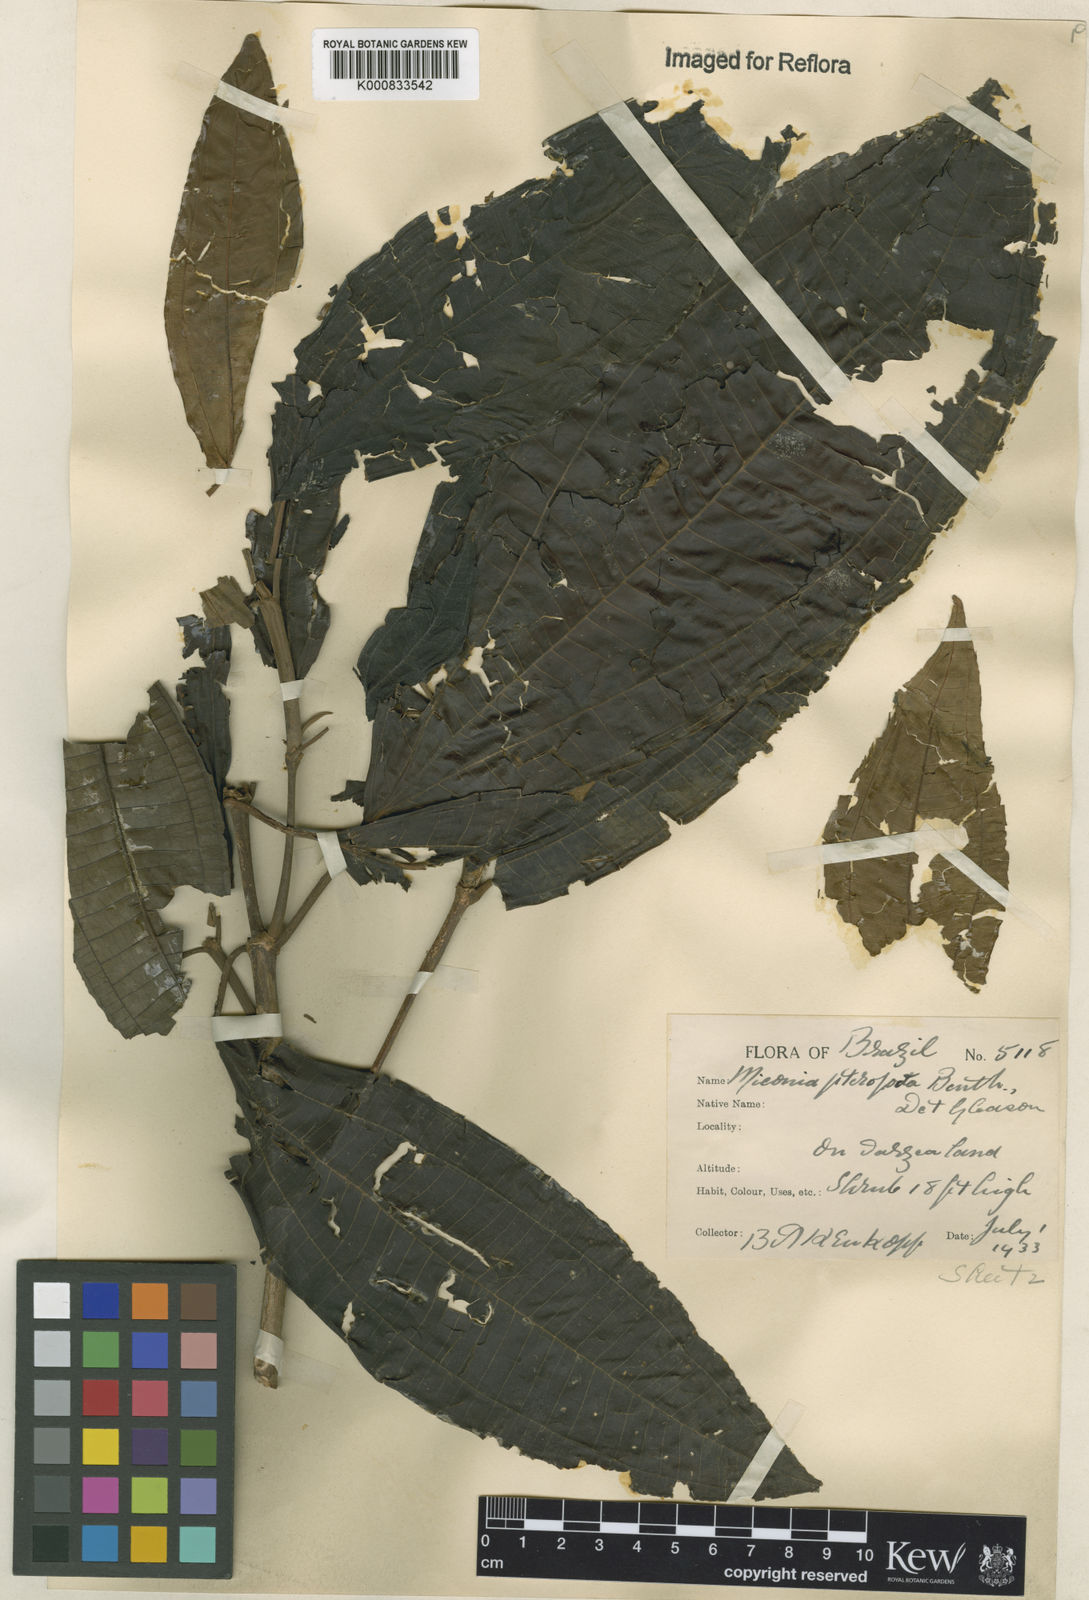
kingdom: Plantae
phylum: Tracheophyta
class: Magnoliopsida
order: Myrtales
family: Melastomataceae
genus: Miconia
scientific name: Miconia prasina
